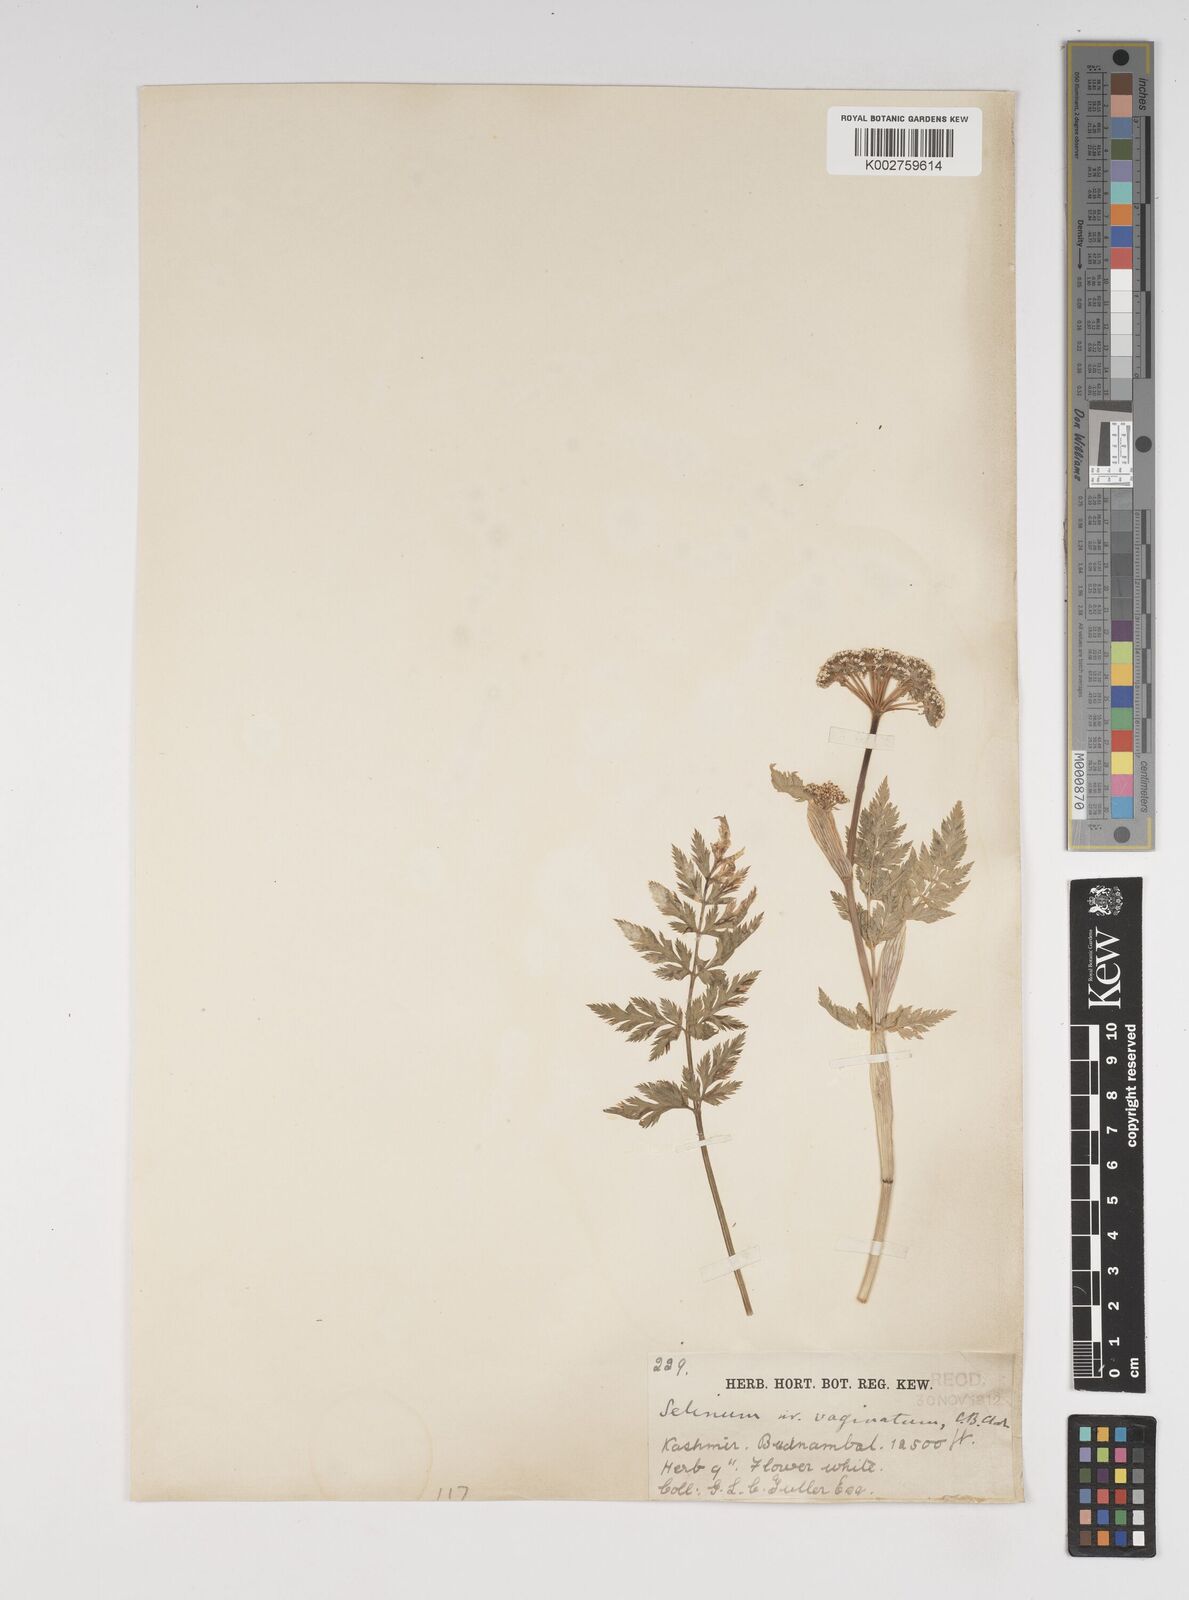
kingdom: Plantae
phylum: Tracheophyta
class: Magnoliopsida
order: Apiales
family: Apiaceae
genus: Selinum
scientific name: Selinum vaginatum
